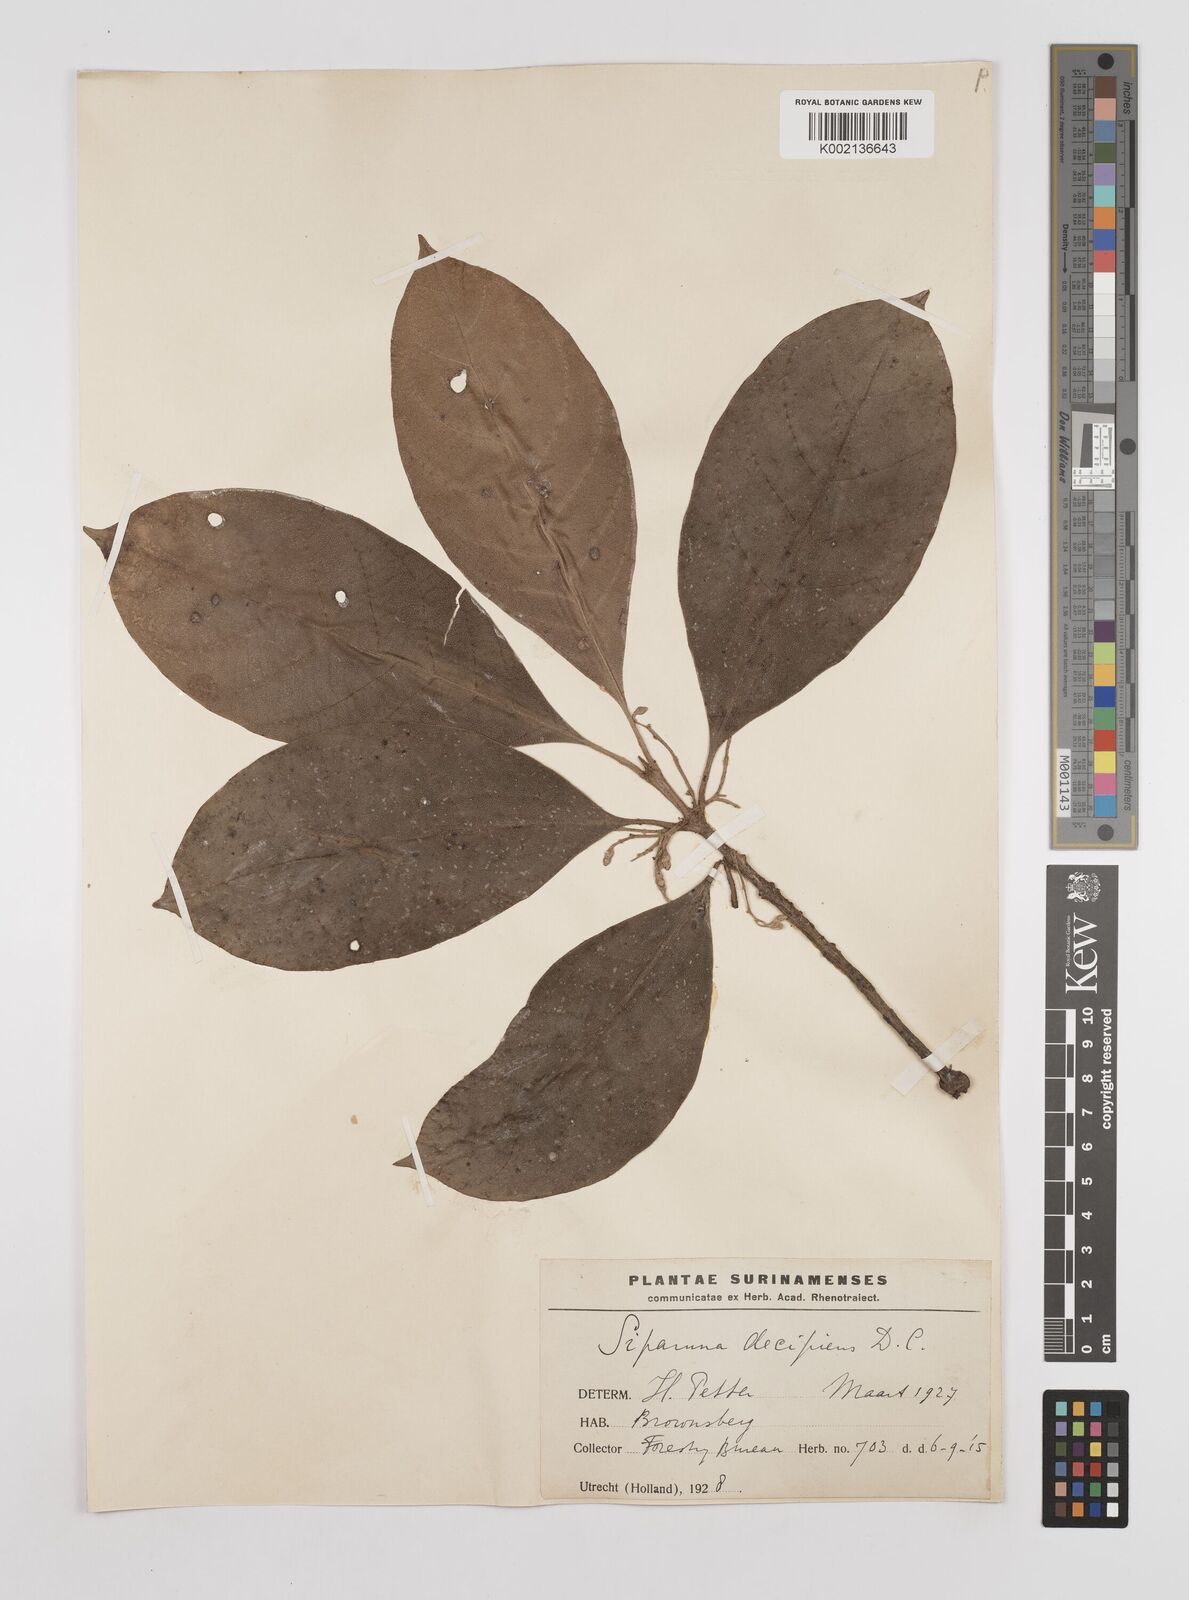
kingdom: Plantae
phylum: Tracheophyta
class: Magnoliopsida
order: Laurales
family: Siparunaceae
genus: Siparuna
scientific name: Siparuna decipiens
